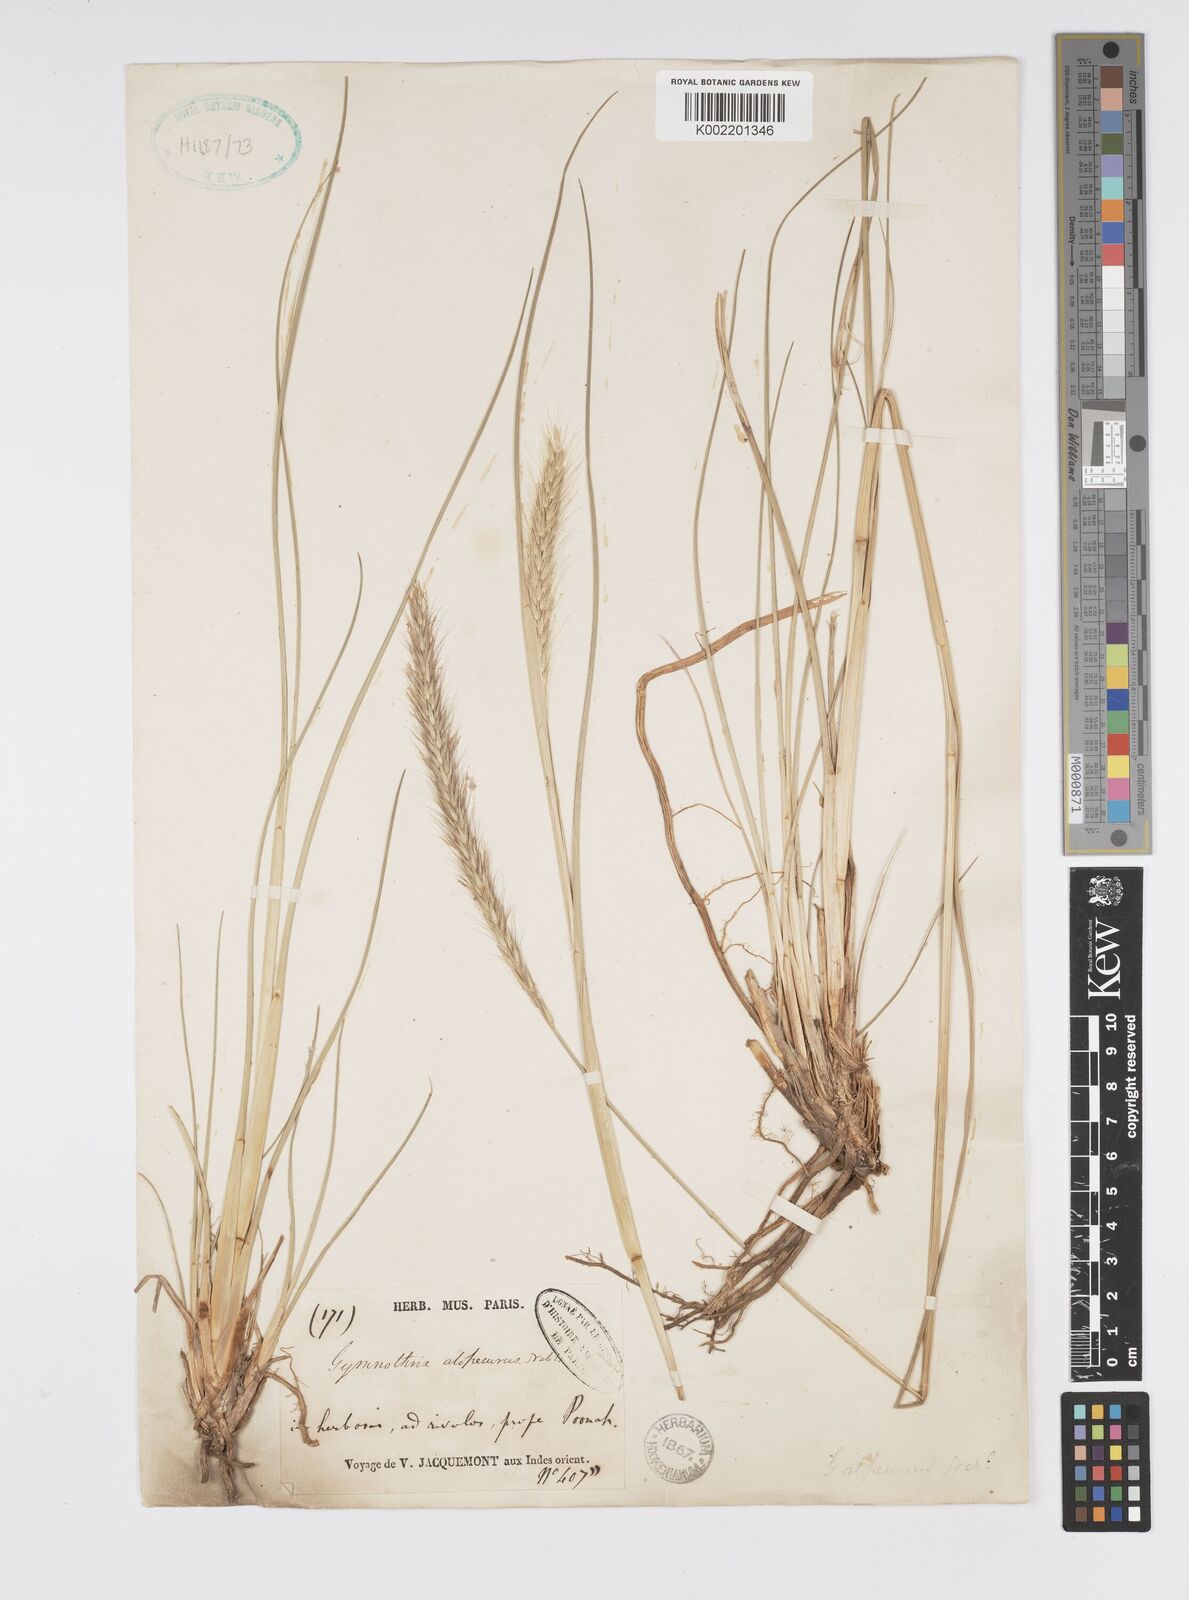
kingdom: Plantae
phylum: Tracheophyta
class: Liliopsida
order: Poales
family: Poaceae
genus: Cenchrus
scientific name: Cenchrus hohenackeri
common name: Moya grass
